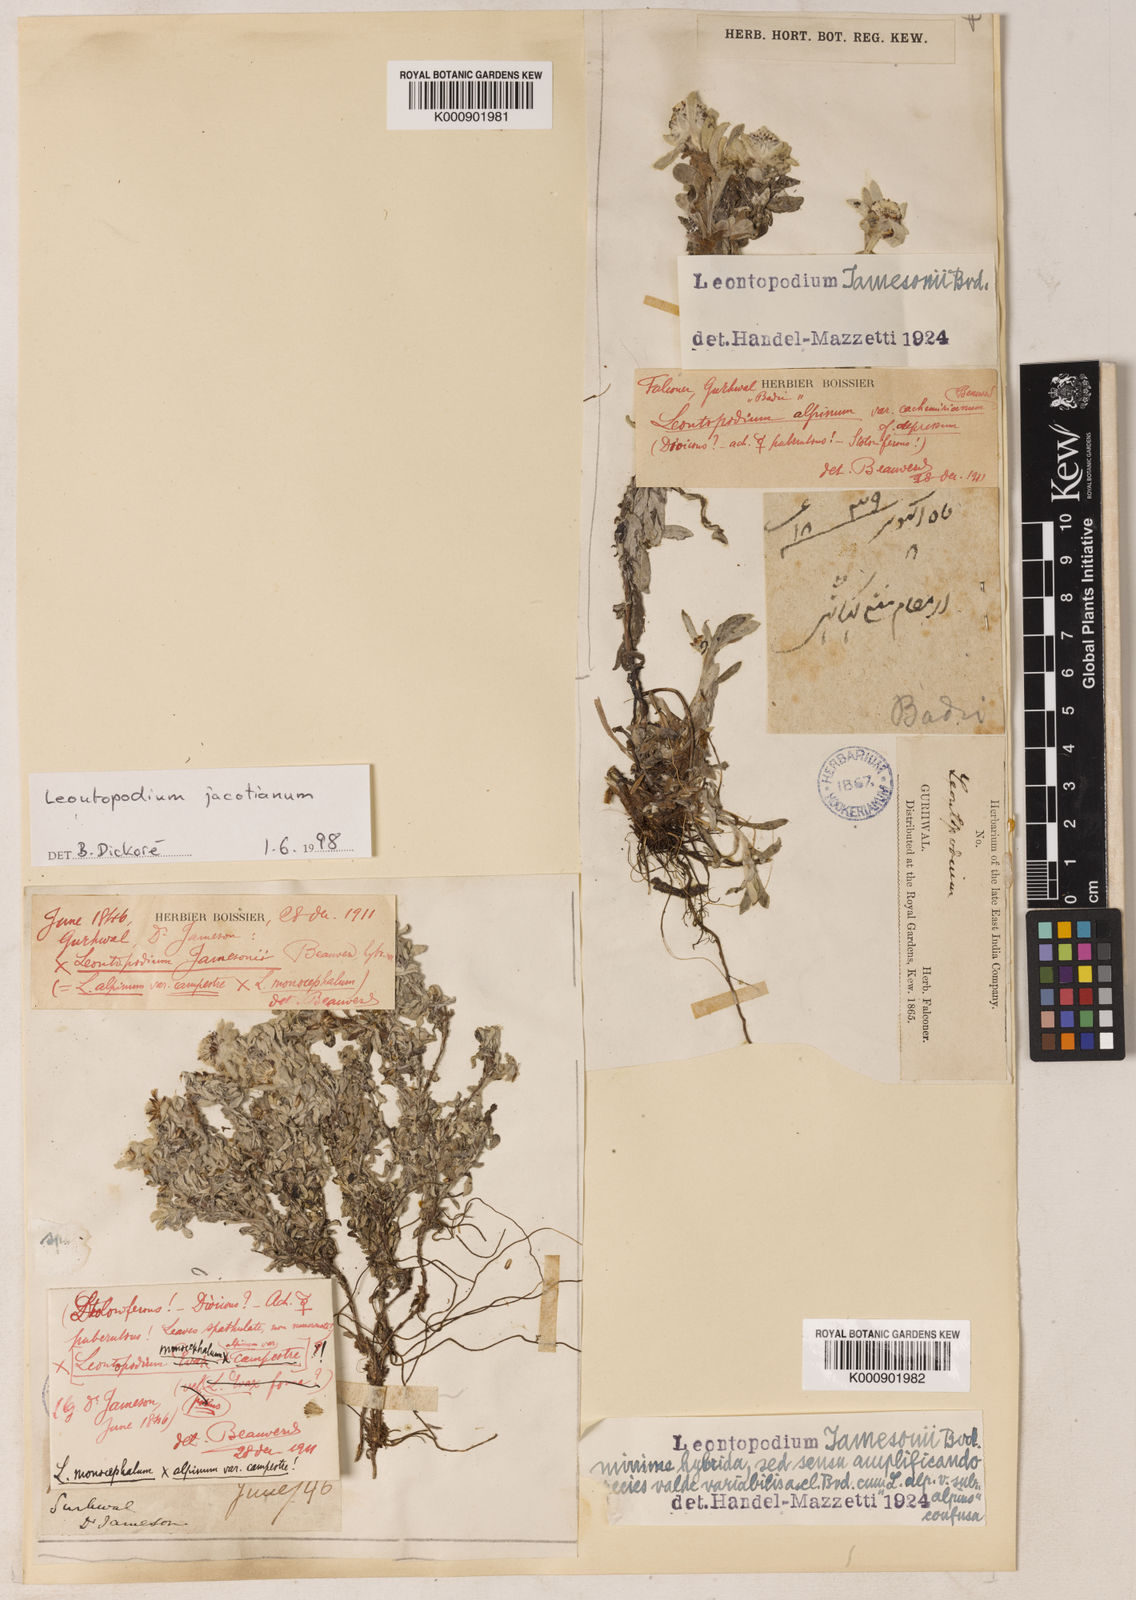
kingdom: Plantae
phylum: Tracheophyta
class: Magnoliopsida
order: Asterales
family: Asteraceae
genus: Leontopodium
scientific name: Leontopodium nanum
